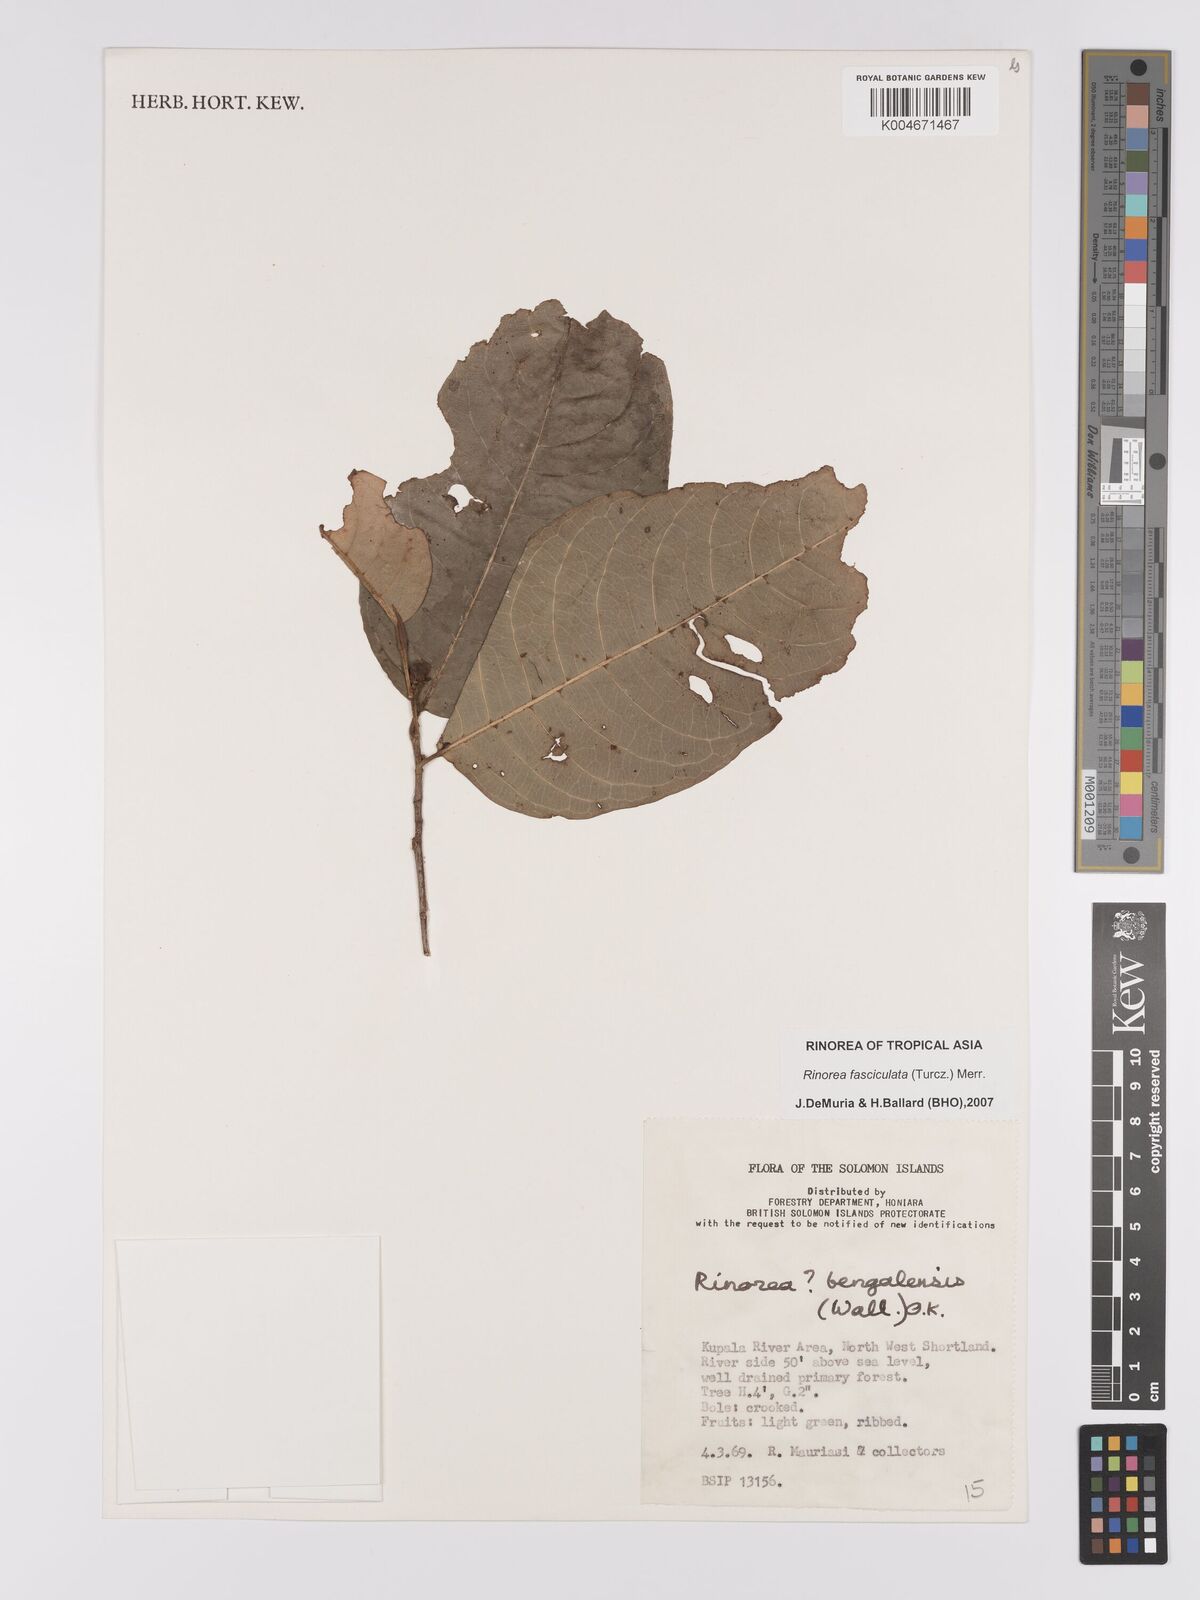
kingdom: Plantae
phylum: Tracheophyta
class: Magnoliopsida
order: Malpighiales
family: Violaceae
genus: Rinorea
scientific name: Rinorea bengalensis
